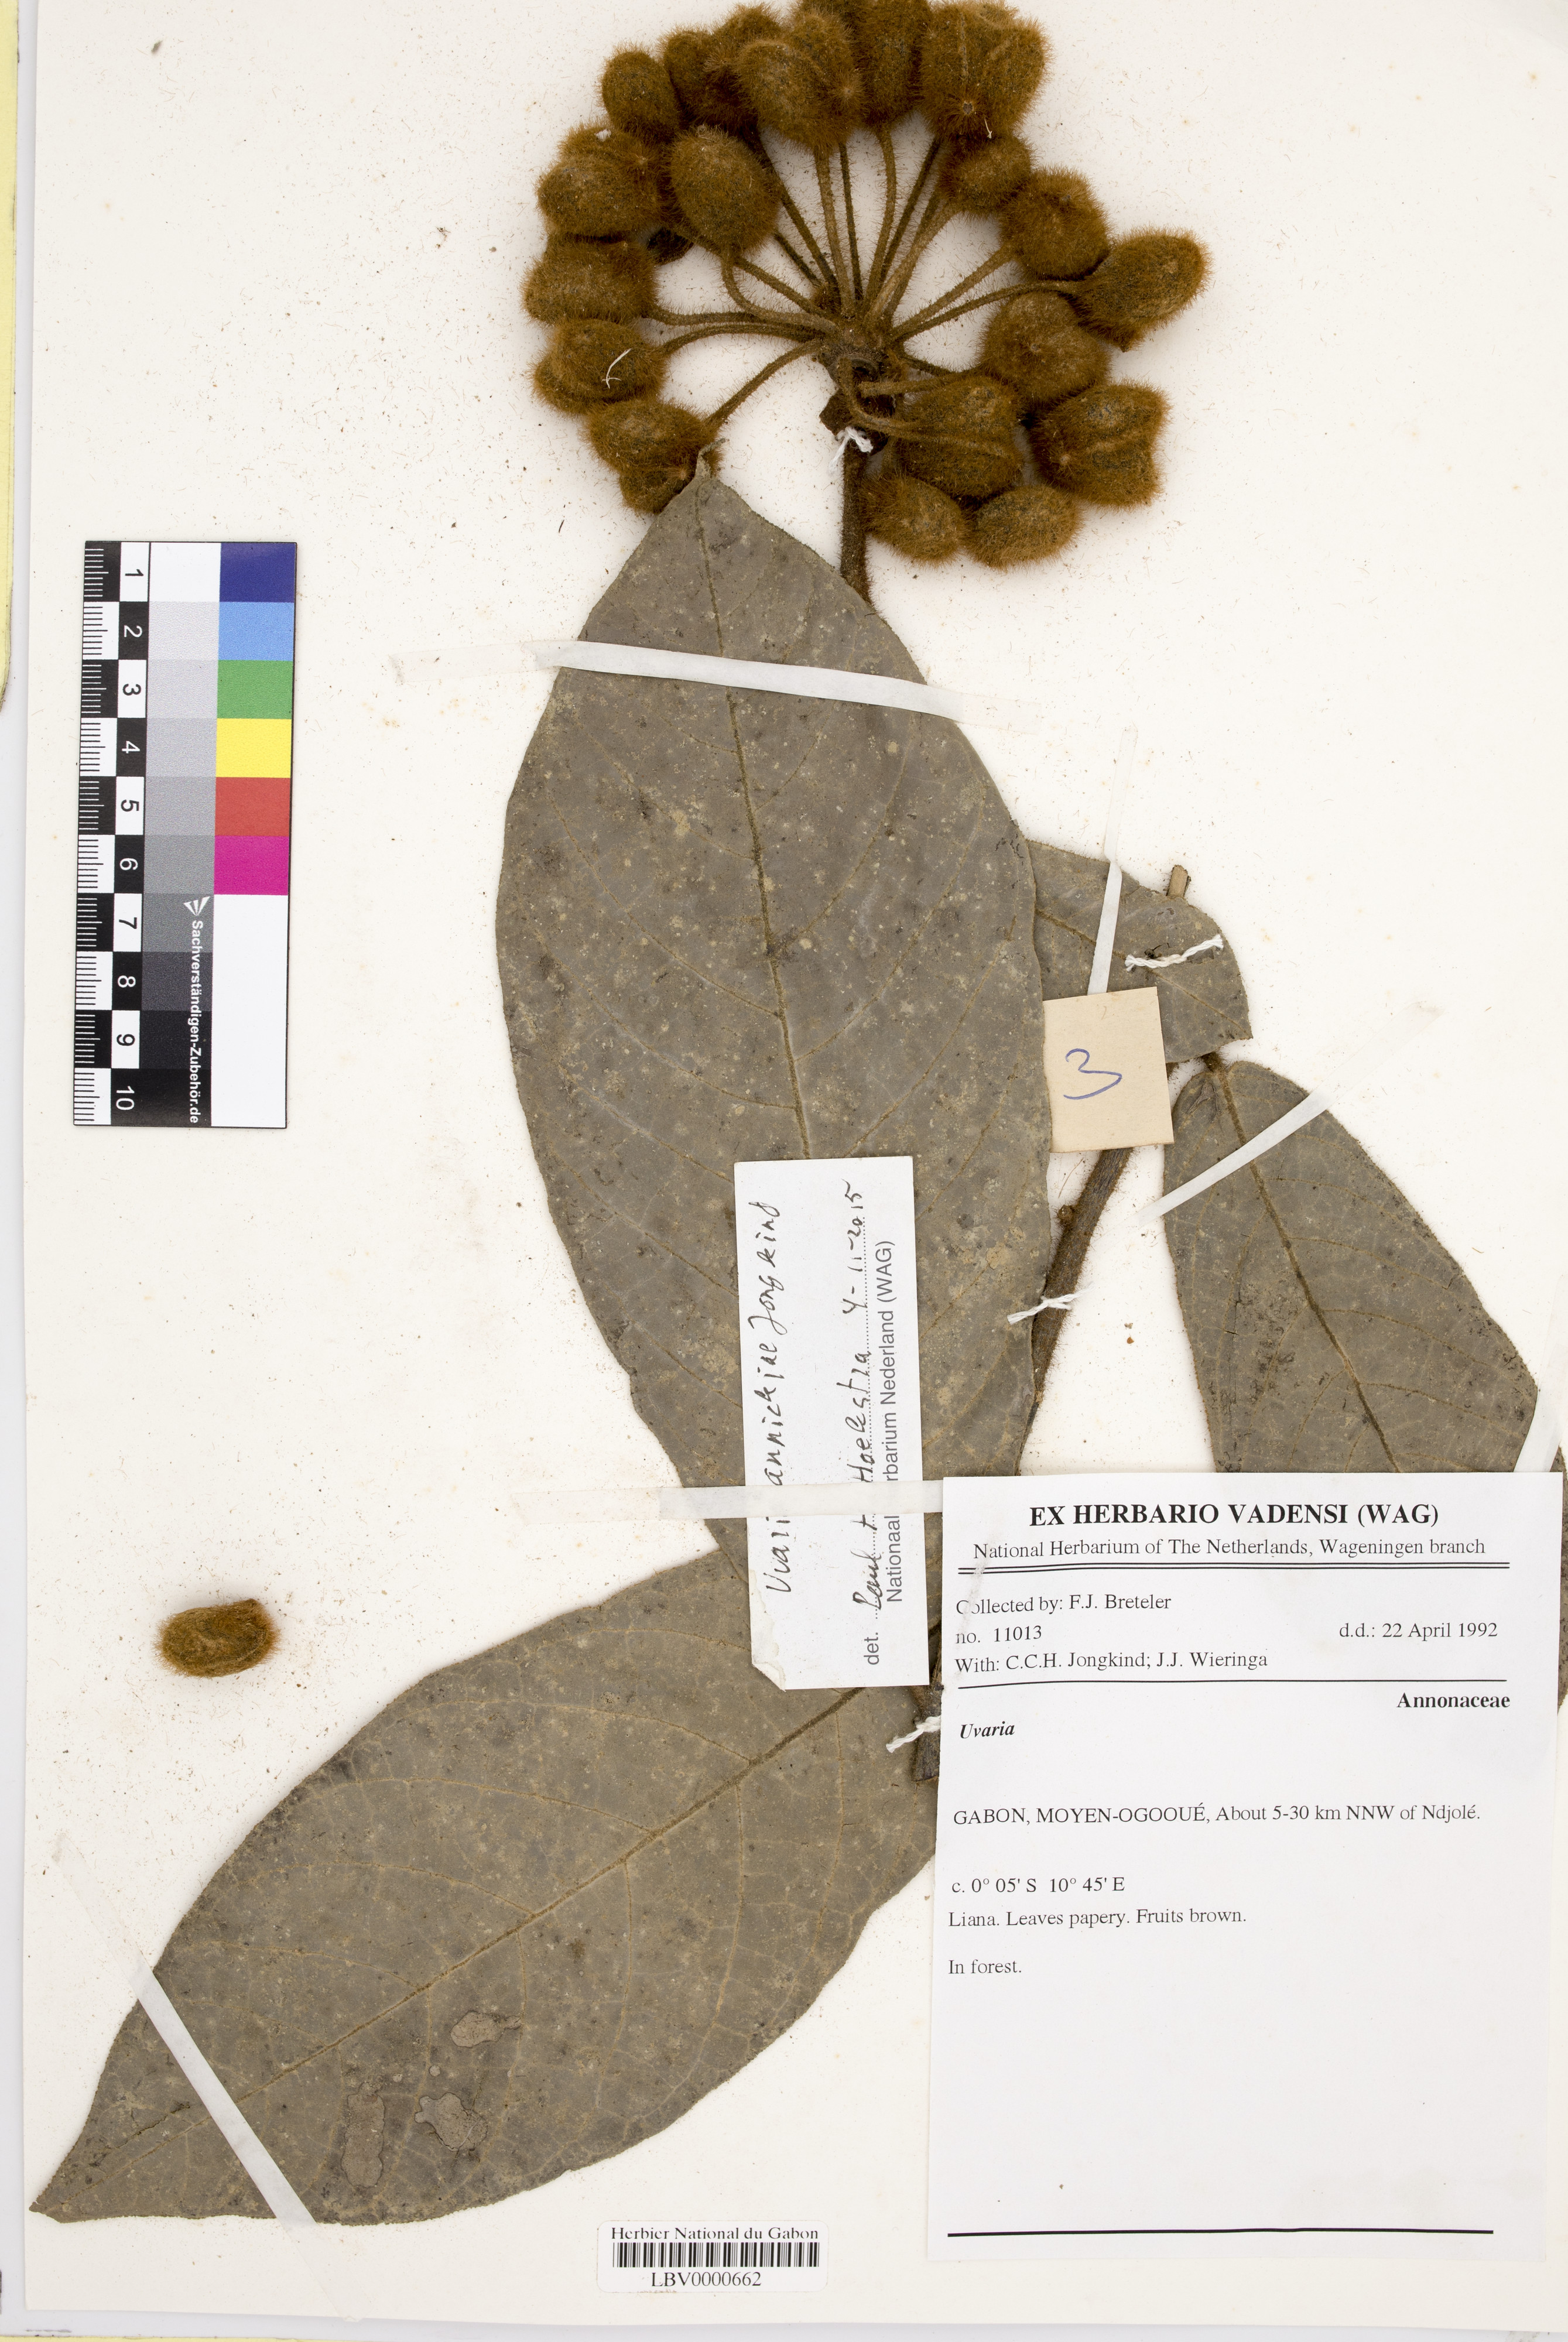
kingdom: Plantae
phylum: Tracheophyta
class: Magnoliopsida
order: Magnoliales
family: Annonaceae
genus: Uvaria
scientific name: Uvaria annickiae
